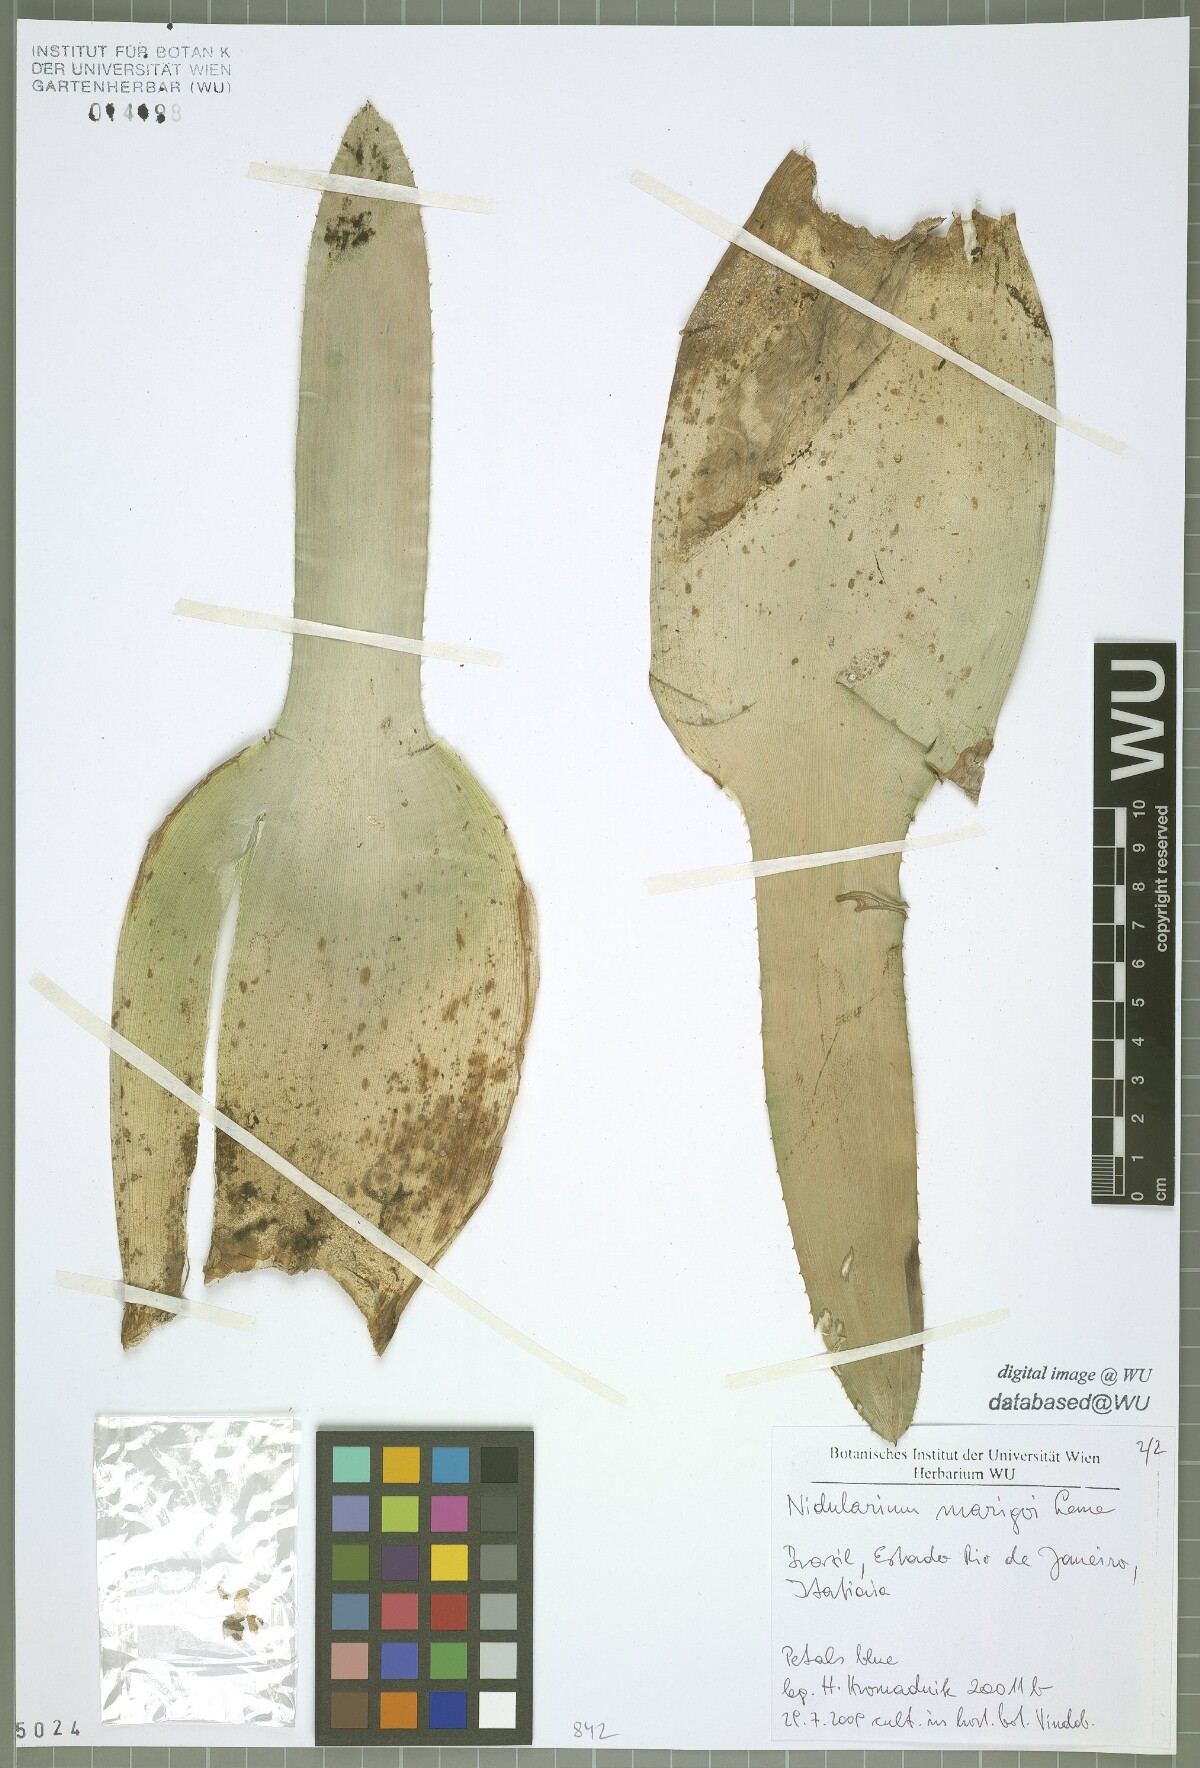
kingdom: Plantae
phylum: Tracheophyta
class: Liliopsida
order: Poales
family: Bromeliaceae
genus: Nidularium
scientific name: Nidularium marigoi
